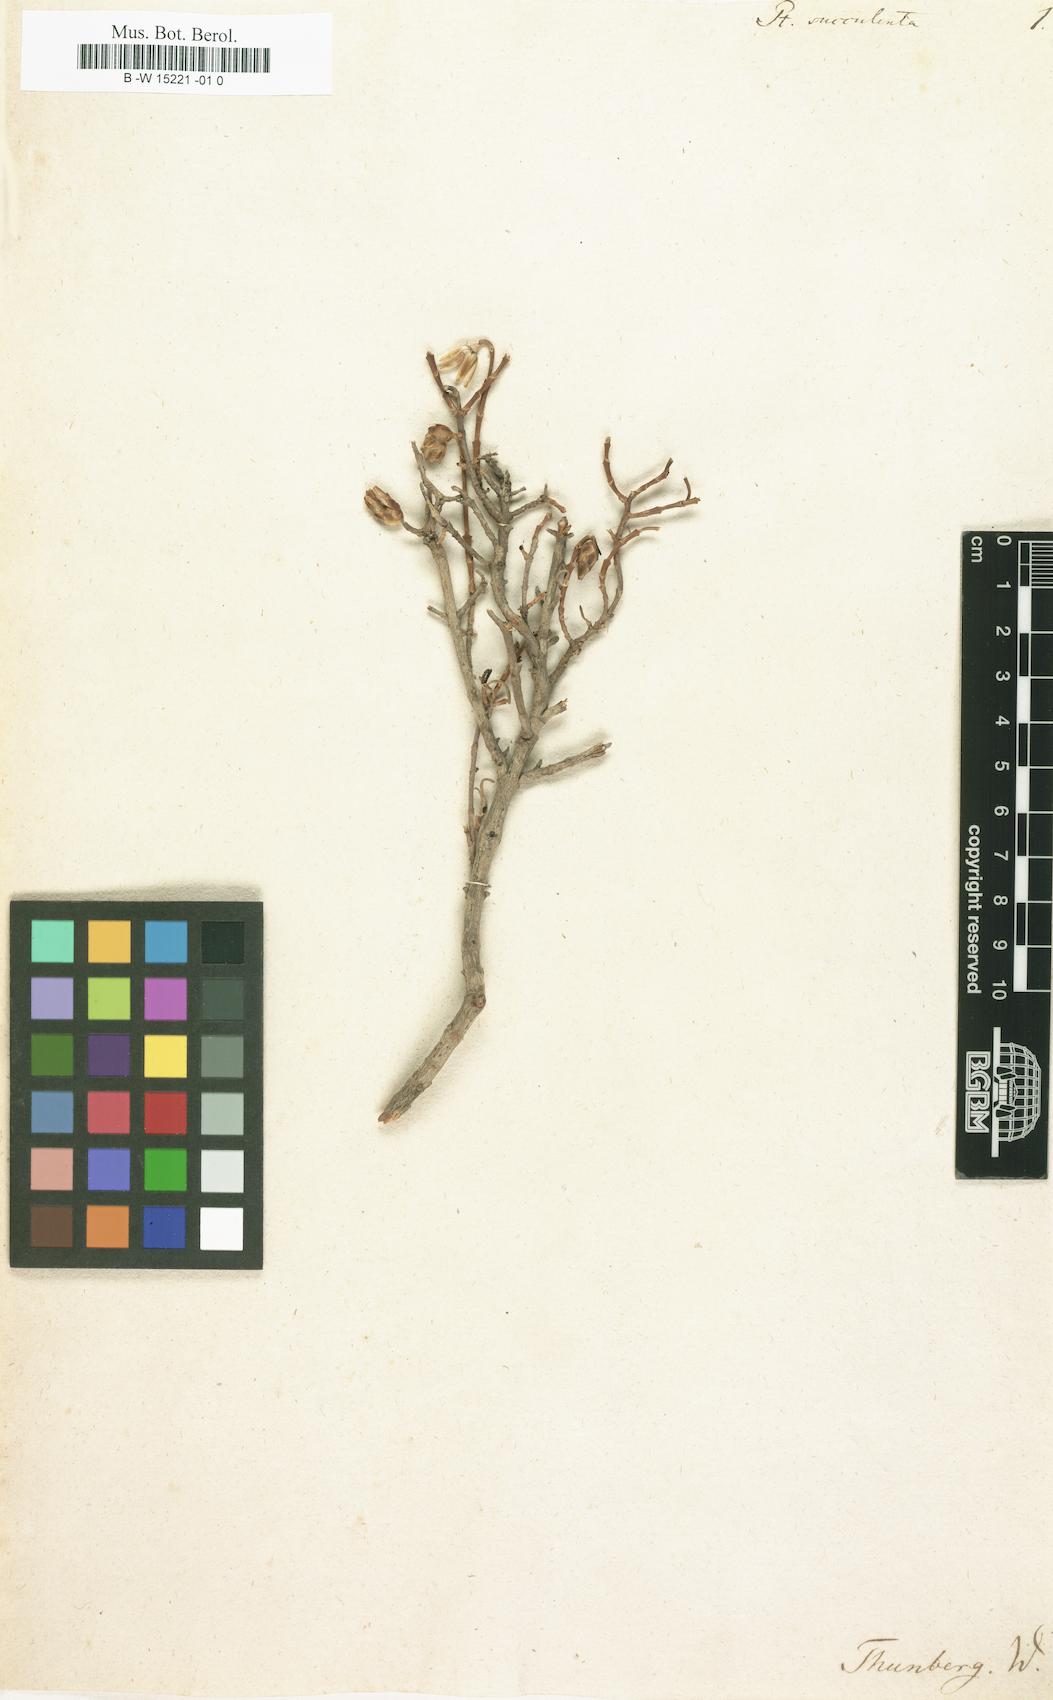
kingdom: Plantae
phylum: Tracheophyta
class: Magnoliopsida
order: Asterales
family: Asteraceae
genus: Pteronia
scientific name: Pteronia succulenta
